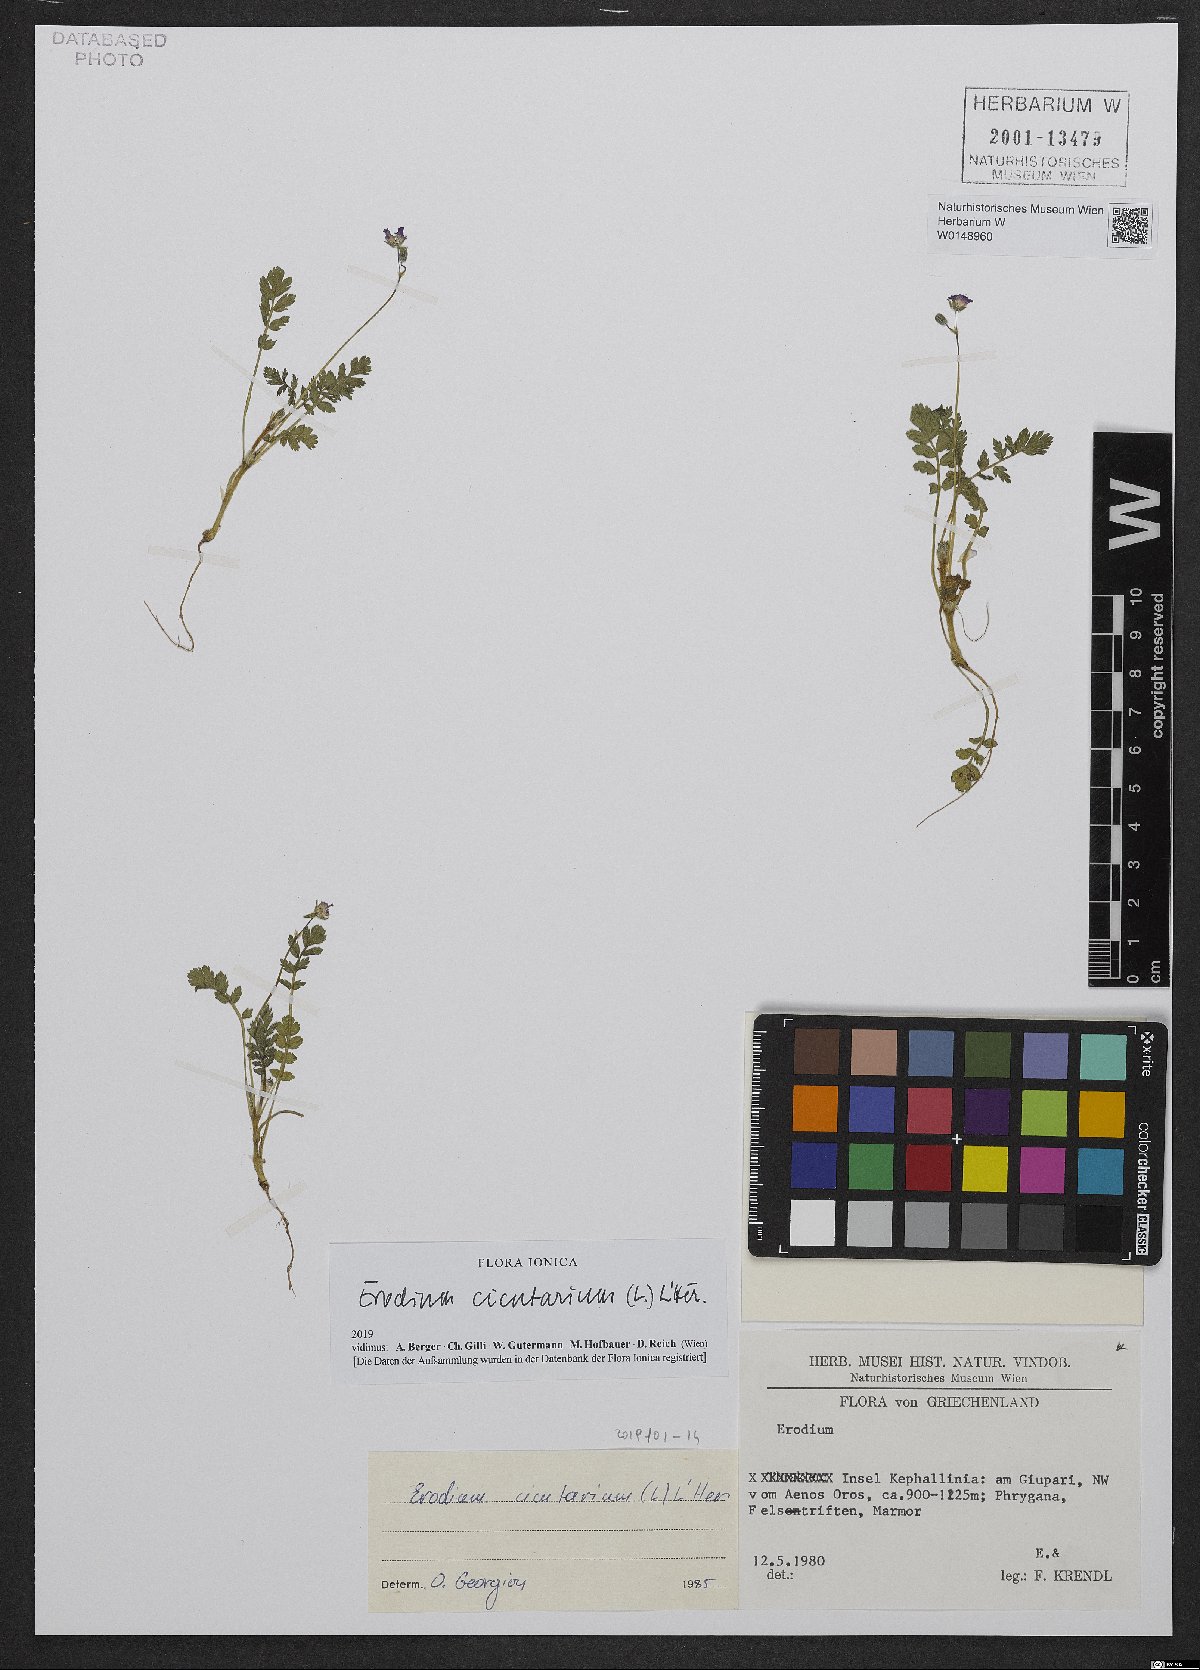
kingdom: Plantae
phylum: Tracheophyta
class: Magnoliopsida
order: Geraniales
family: Geraniaceae
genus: Erodium
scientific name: Erodium cicutarium
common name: Common stork's-bill
